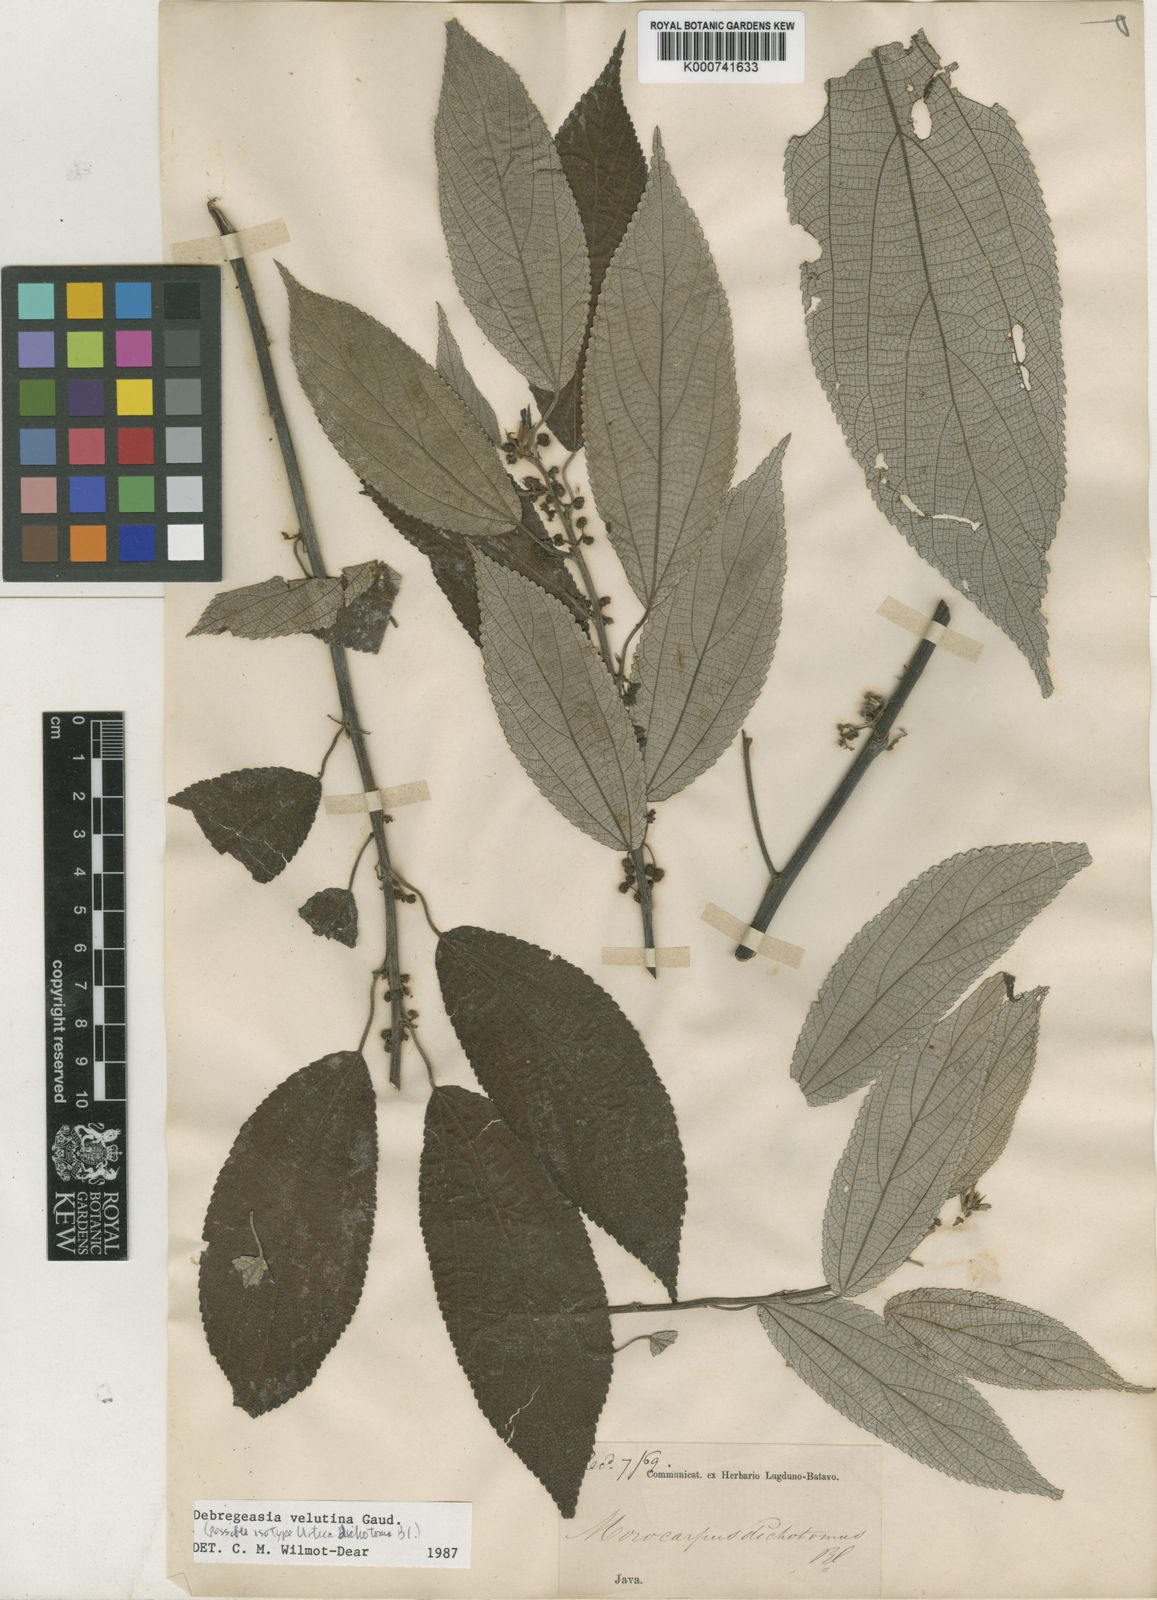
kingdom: Plantae
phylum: Tracheophyta
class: Magnoliopsida
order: Rosales
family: Urticaceae
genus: Debregeasia
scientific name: Debregeasia longifolia
